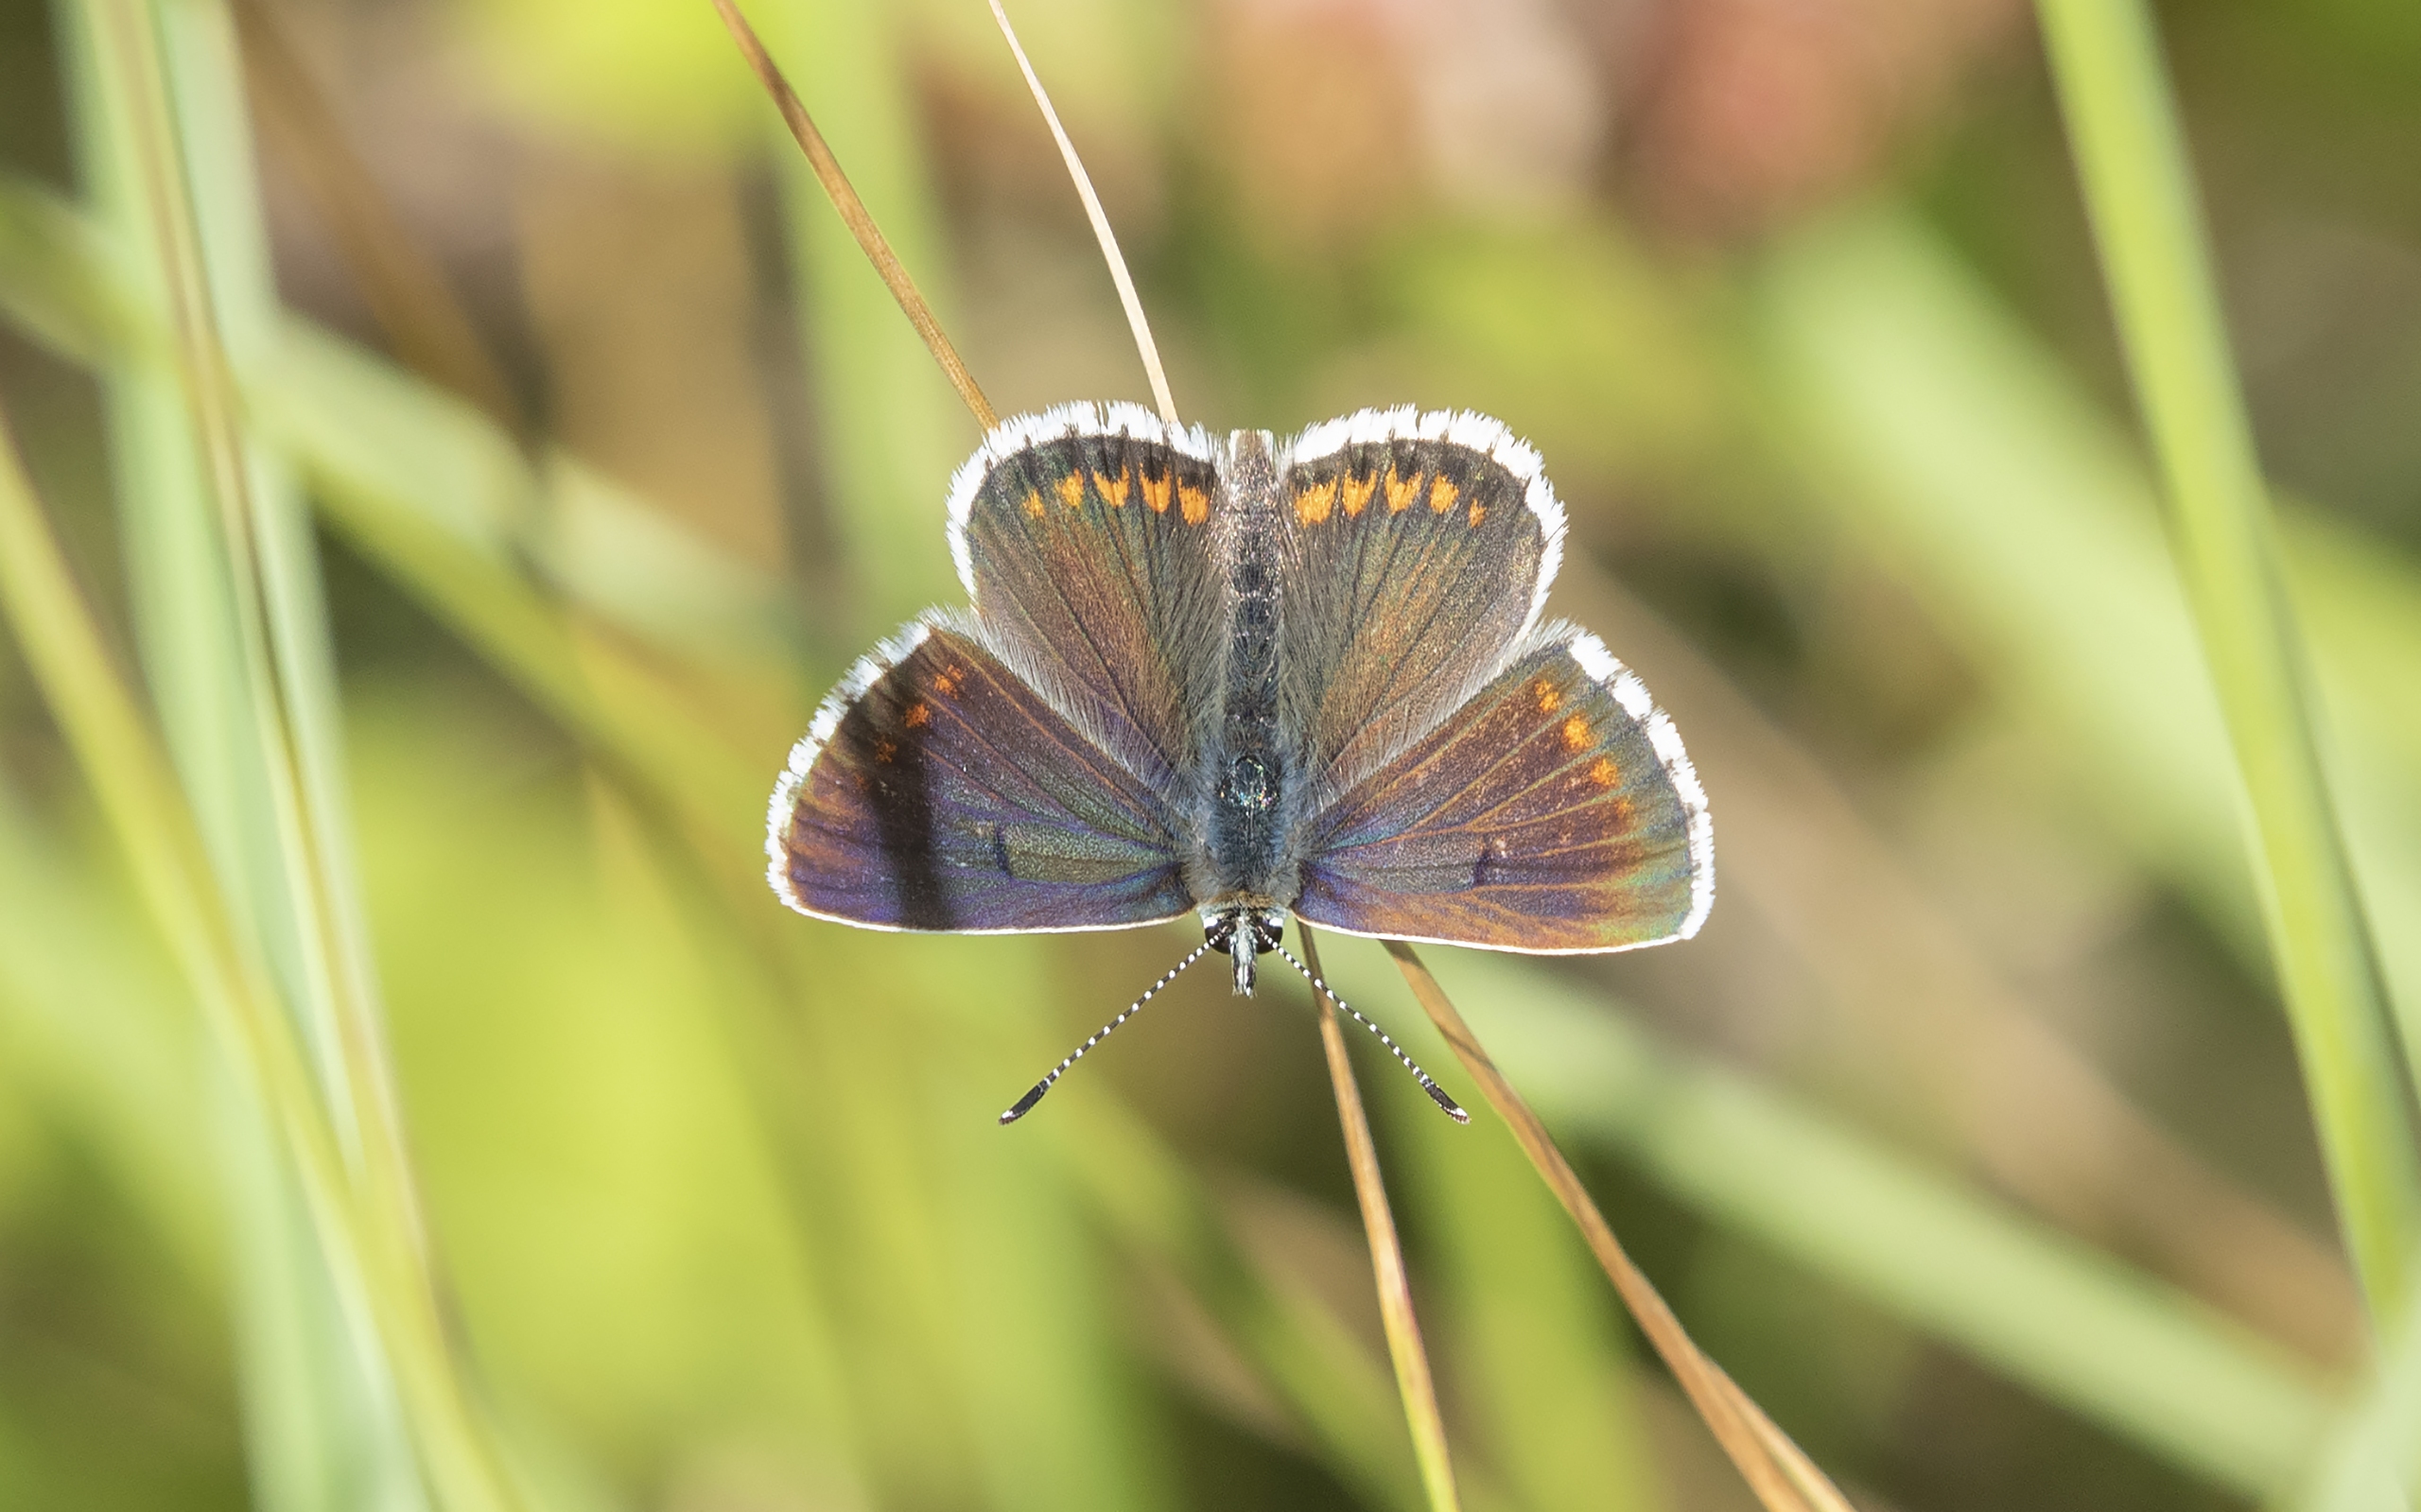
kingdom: Animalia
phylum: Arthropoda
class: Insecta
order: Lepidoptera
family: Lycaenidae
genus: Aricia
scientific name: Aricia agestis
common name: Rødplettet blåfugl
